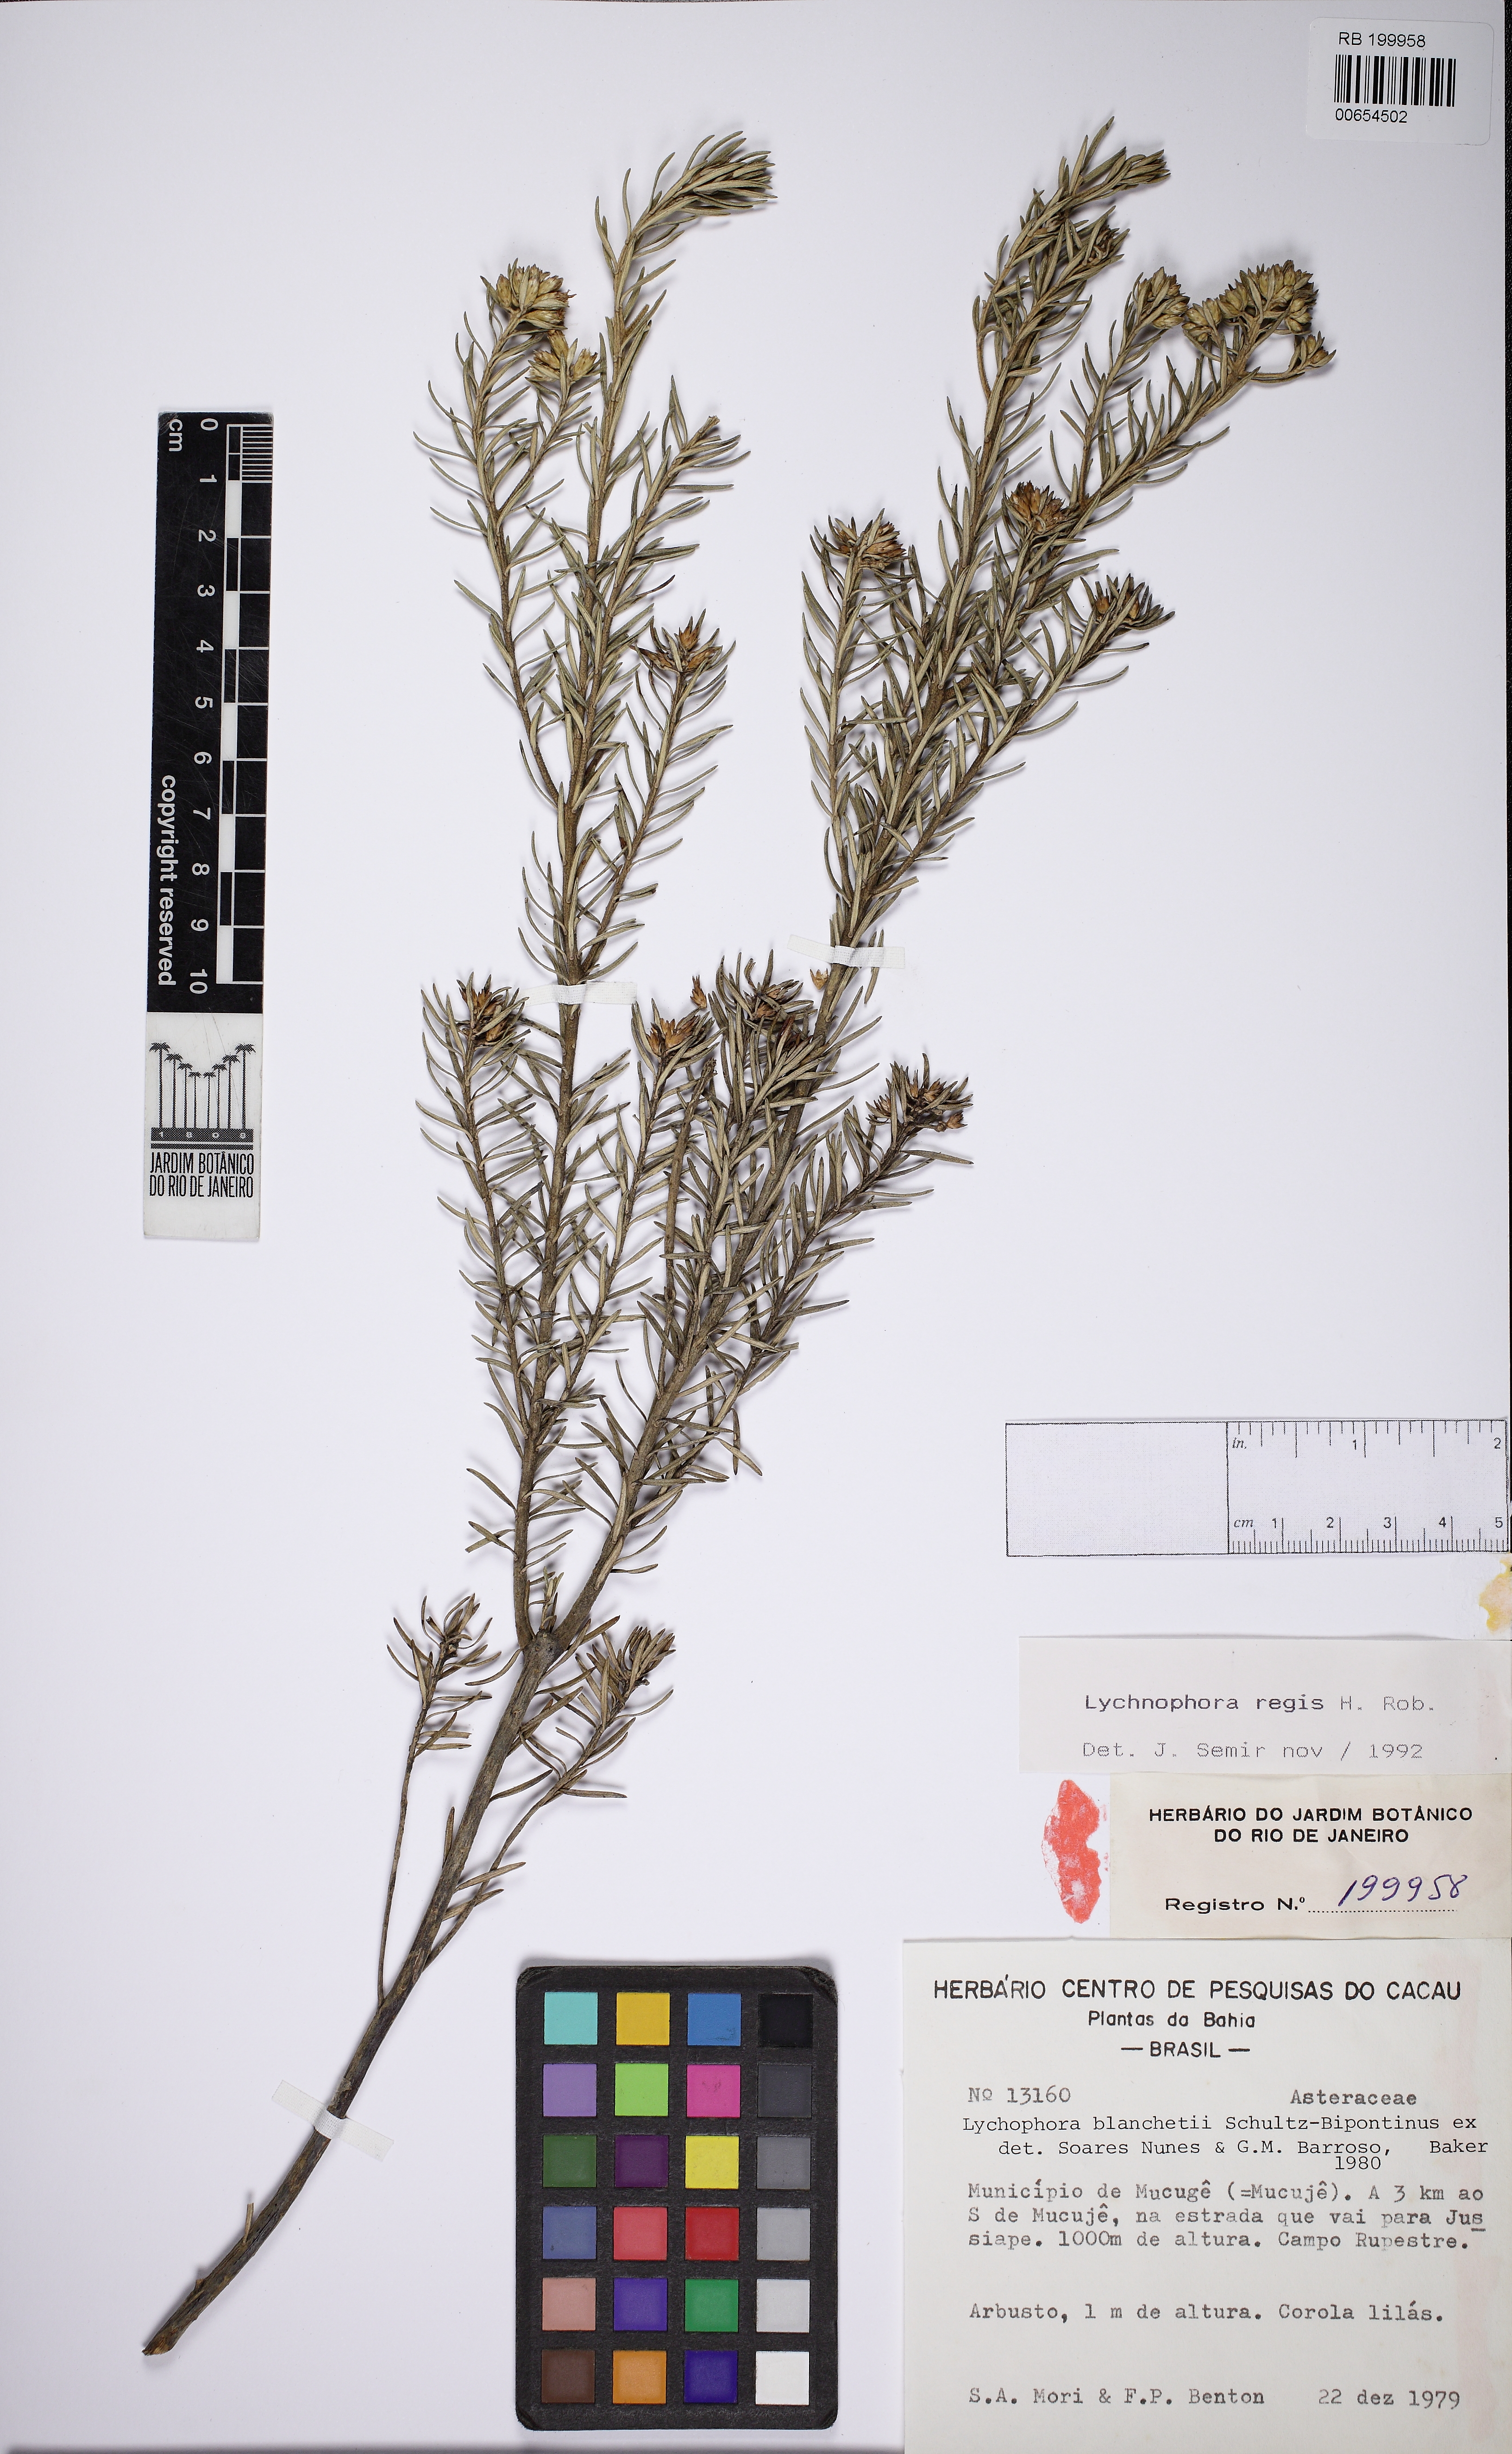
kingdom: Plantae
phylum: Tracheophyta
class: Magnoliopsida
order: Asterales
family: Asteraceae
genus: Lychnophorella
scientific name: Lychnophorella regis
